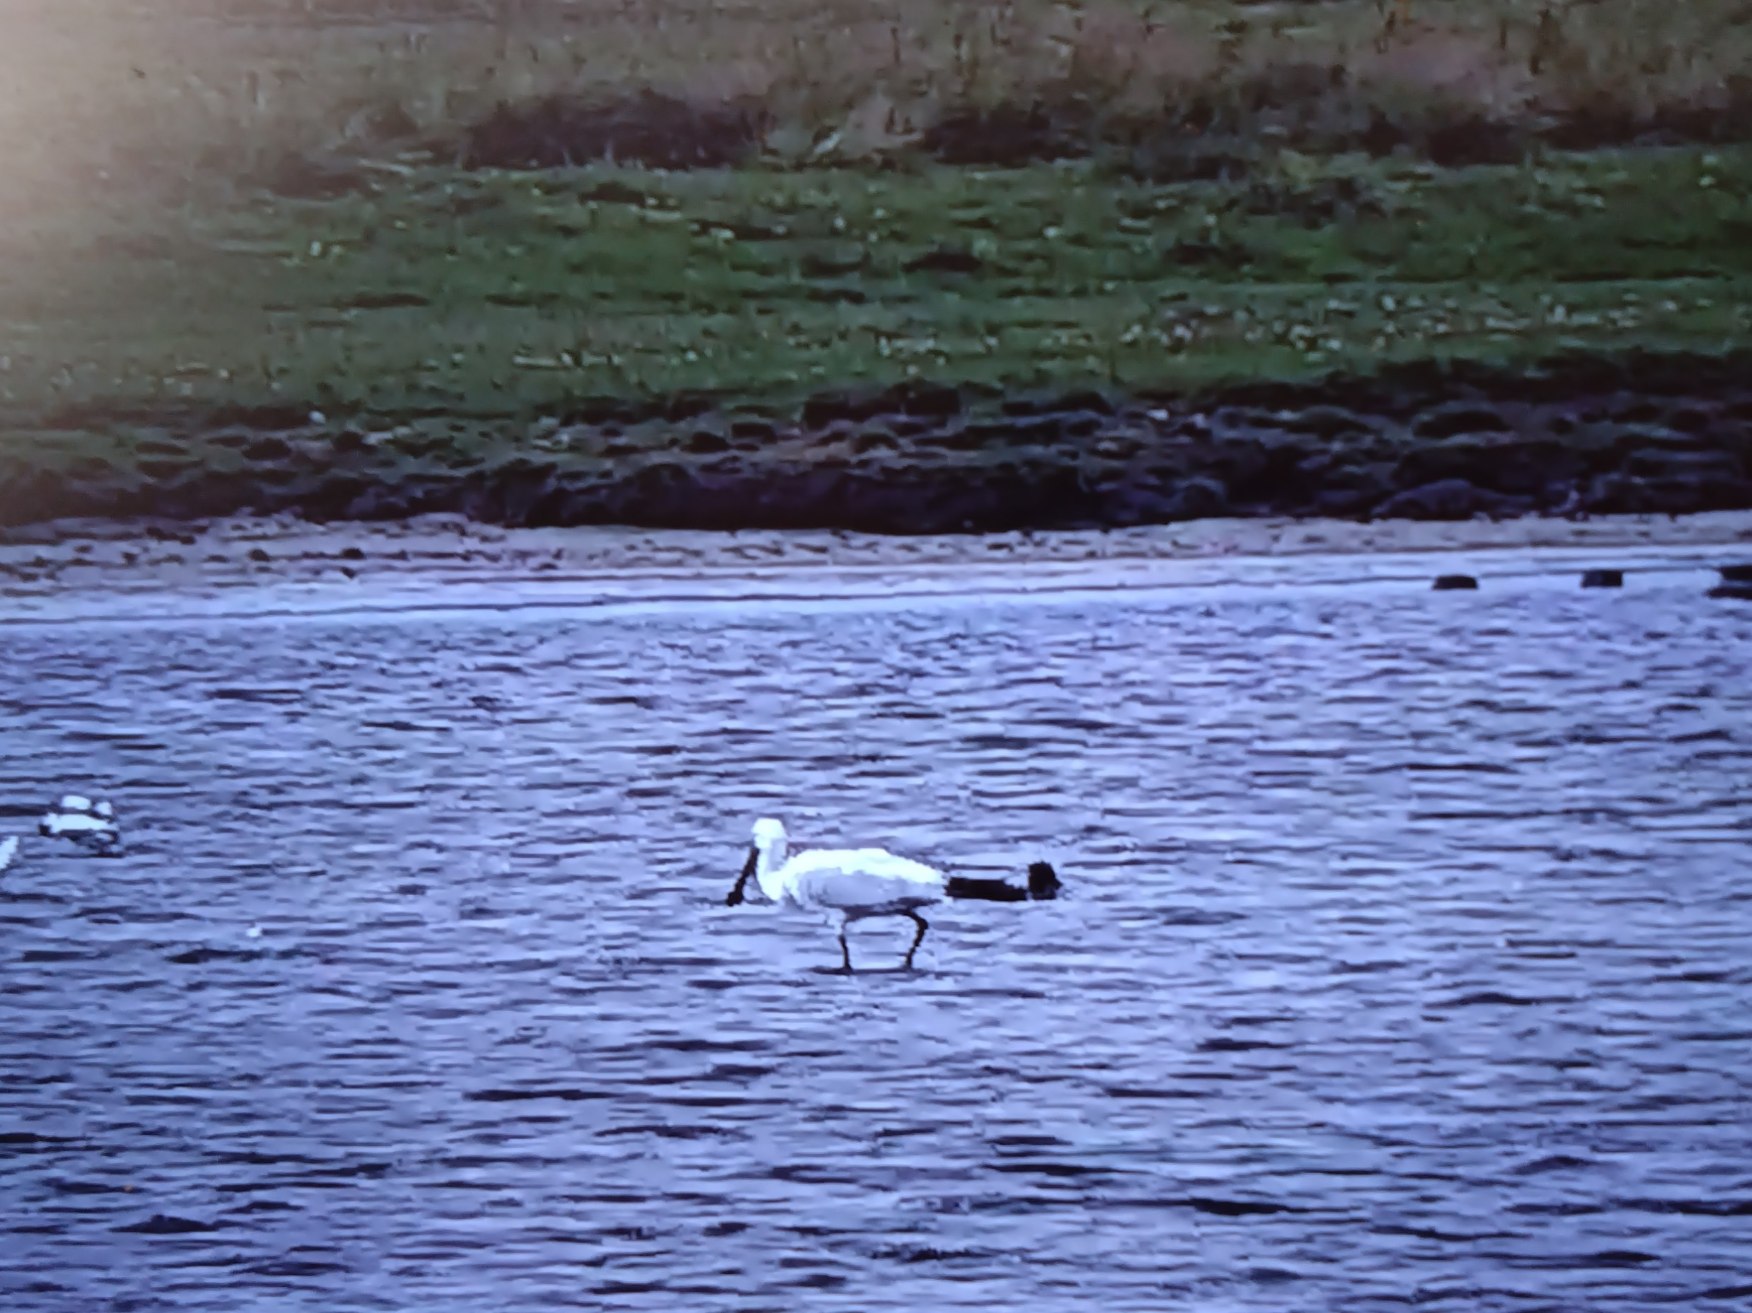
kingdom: Animalia
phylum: Chordata
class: Aves
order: Pelecaniformes
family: Threskiornithidae
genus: Platalea
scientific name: Platalea leucorodia
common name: Skestork
